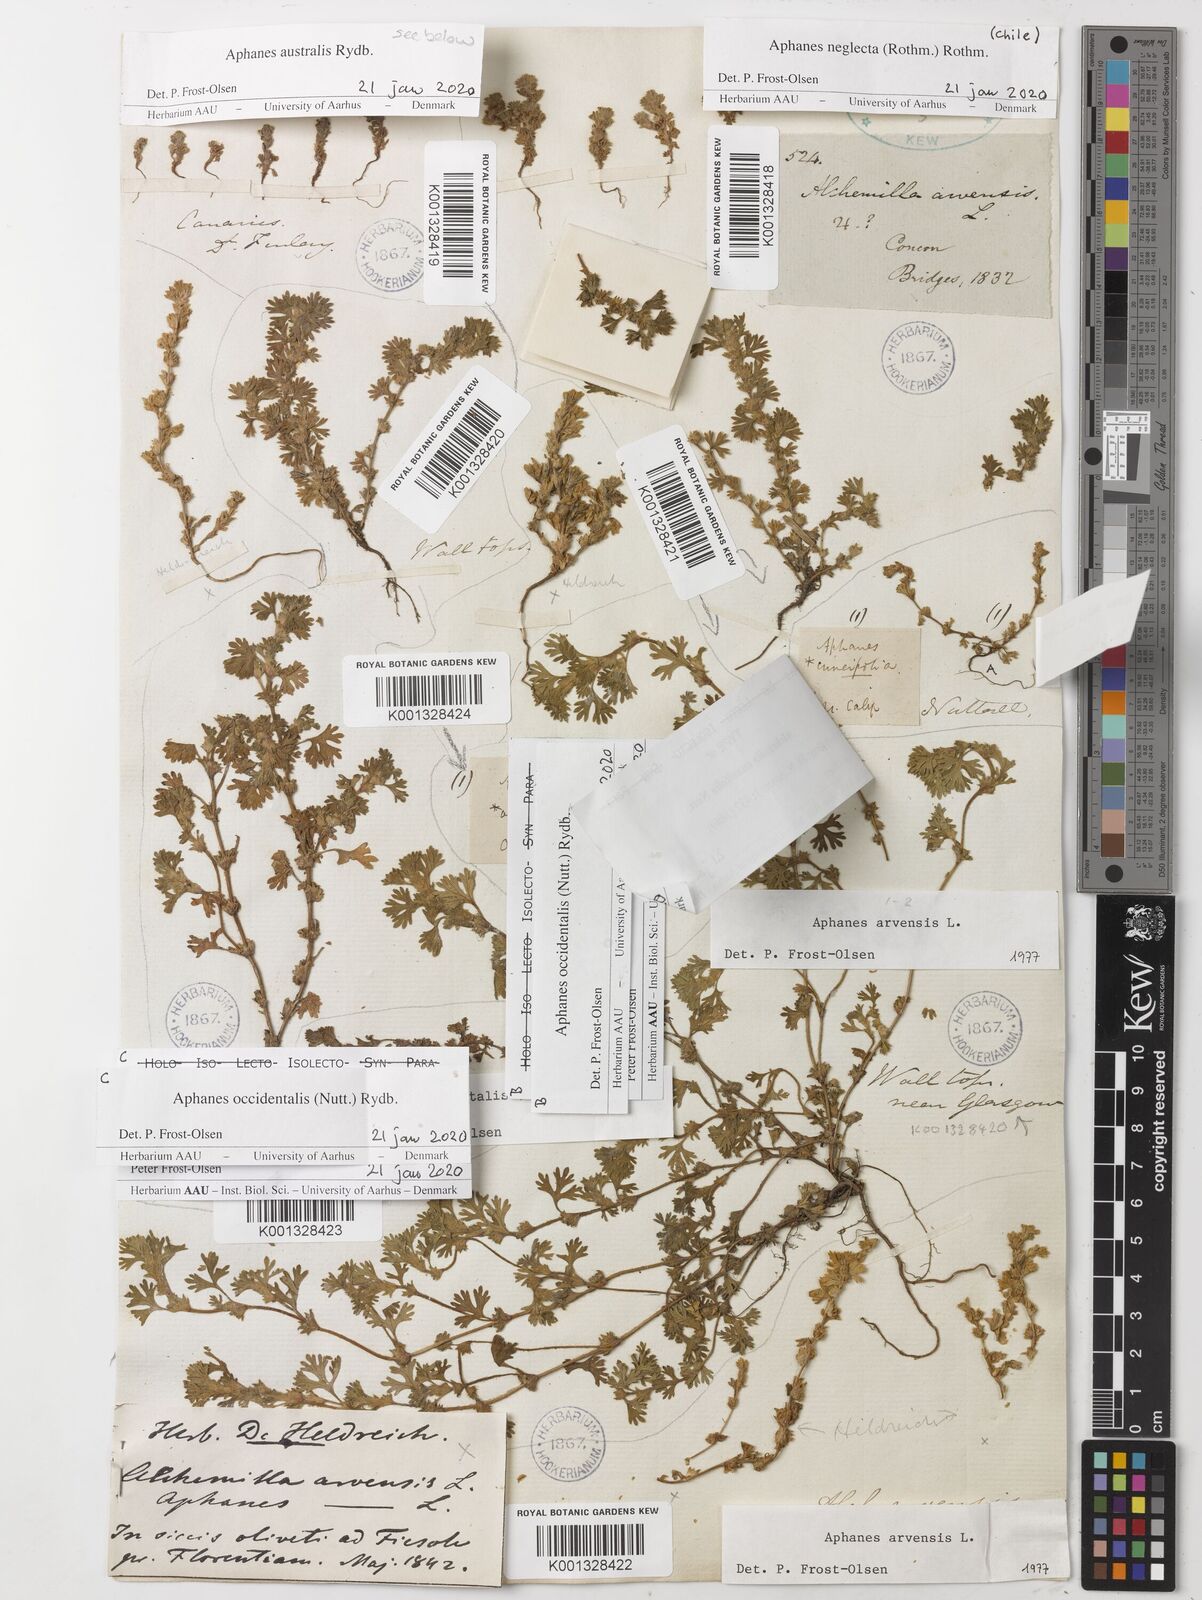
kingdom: Plantae
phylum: Tracheophyta
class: Magnoliopsida
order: Rosales
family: Rosaceae
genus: Aphanes
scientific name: Aphanes arvensis
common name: Parsley-piert
